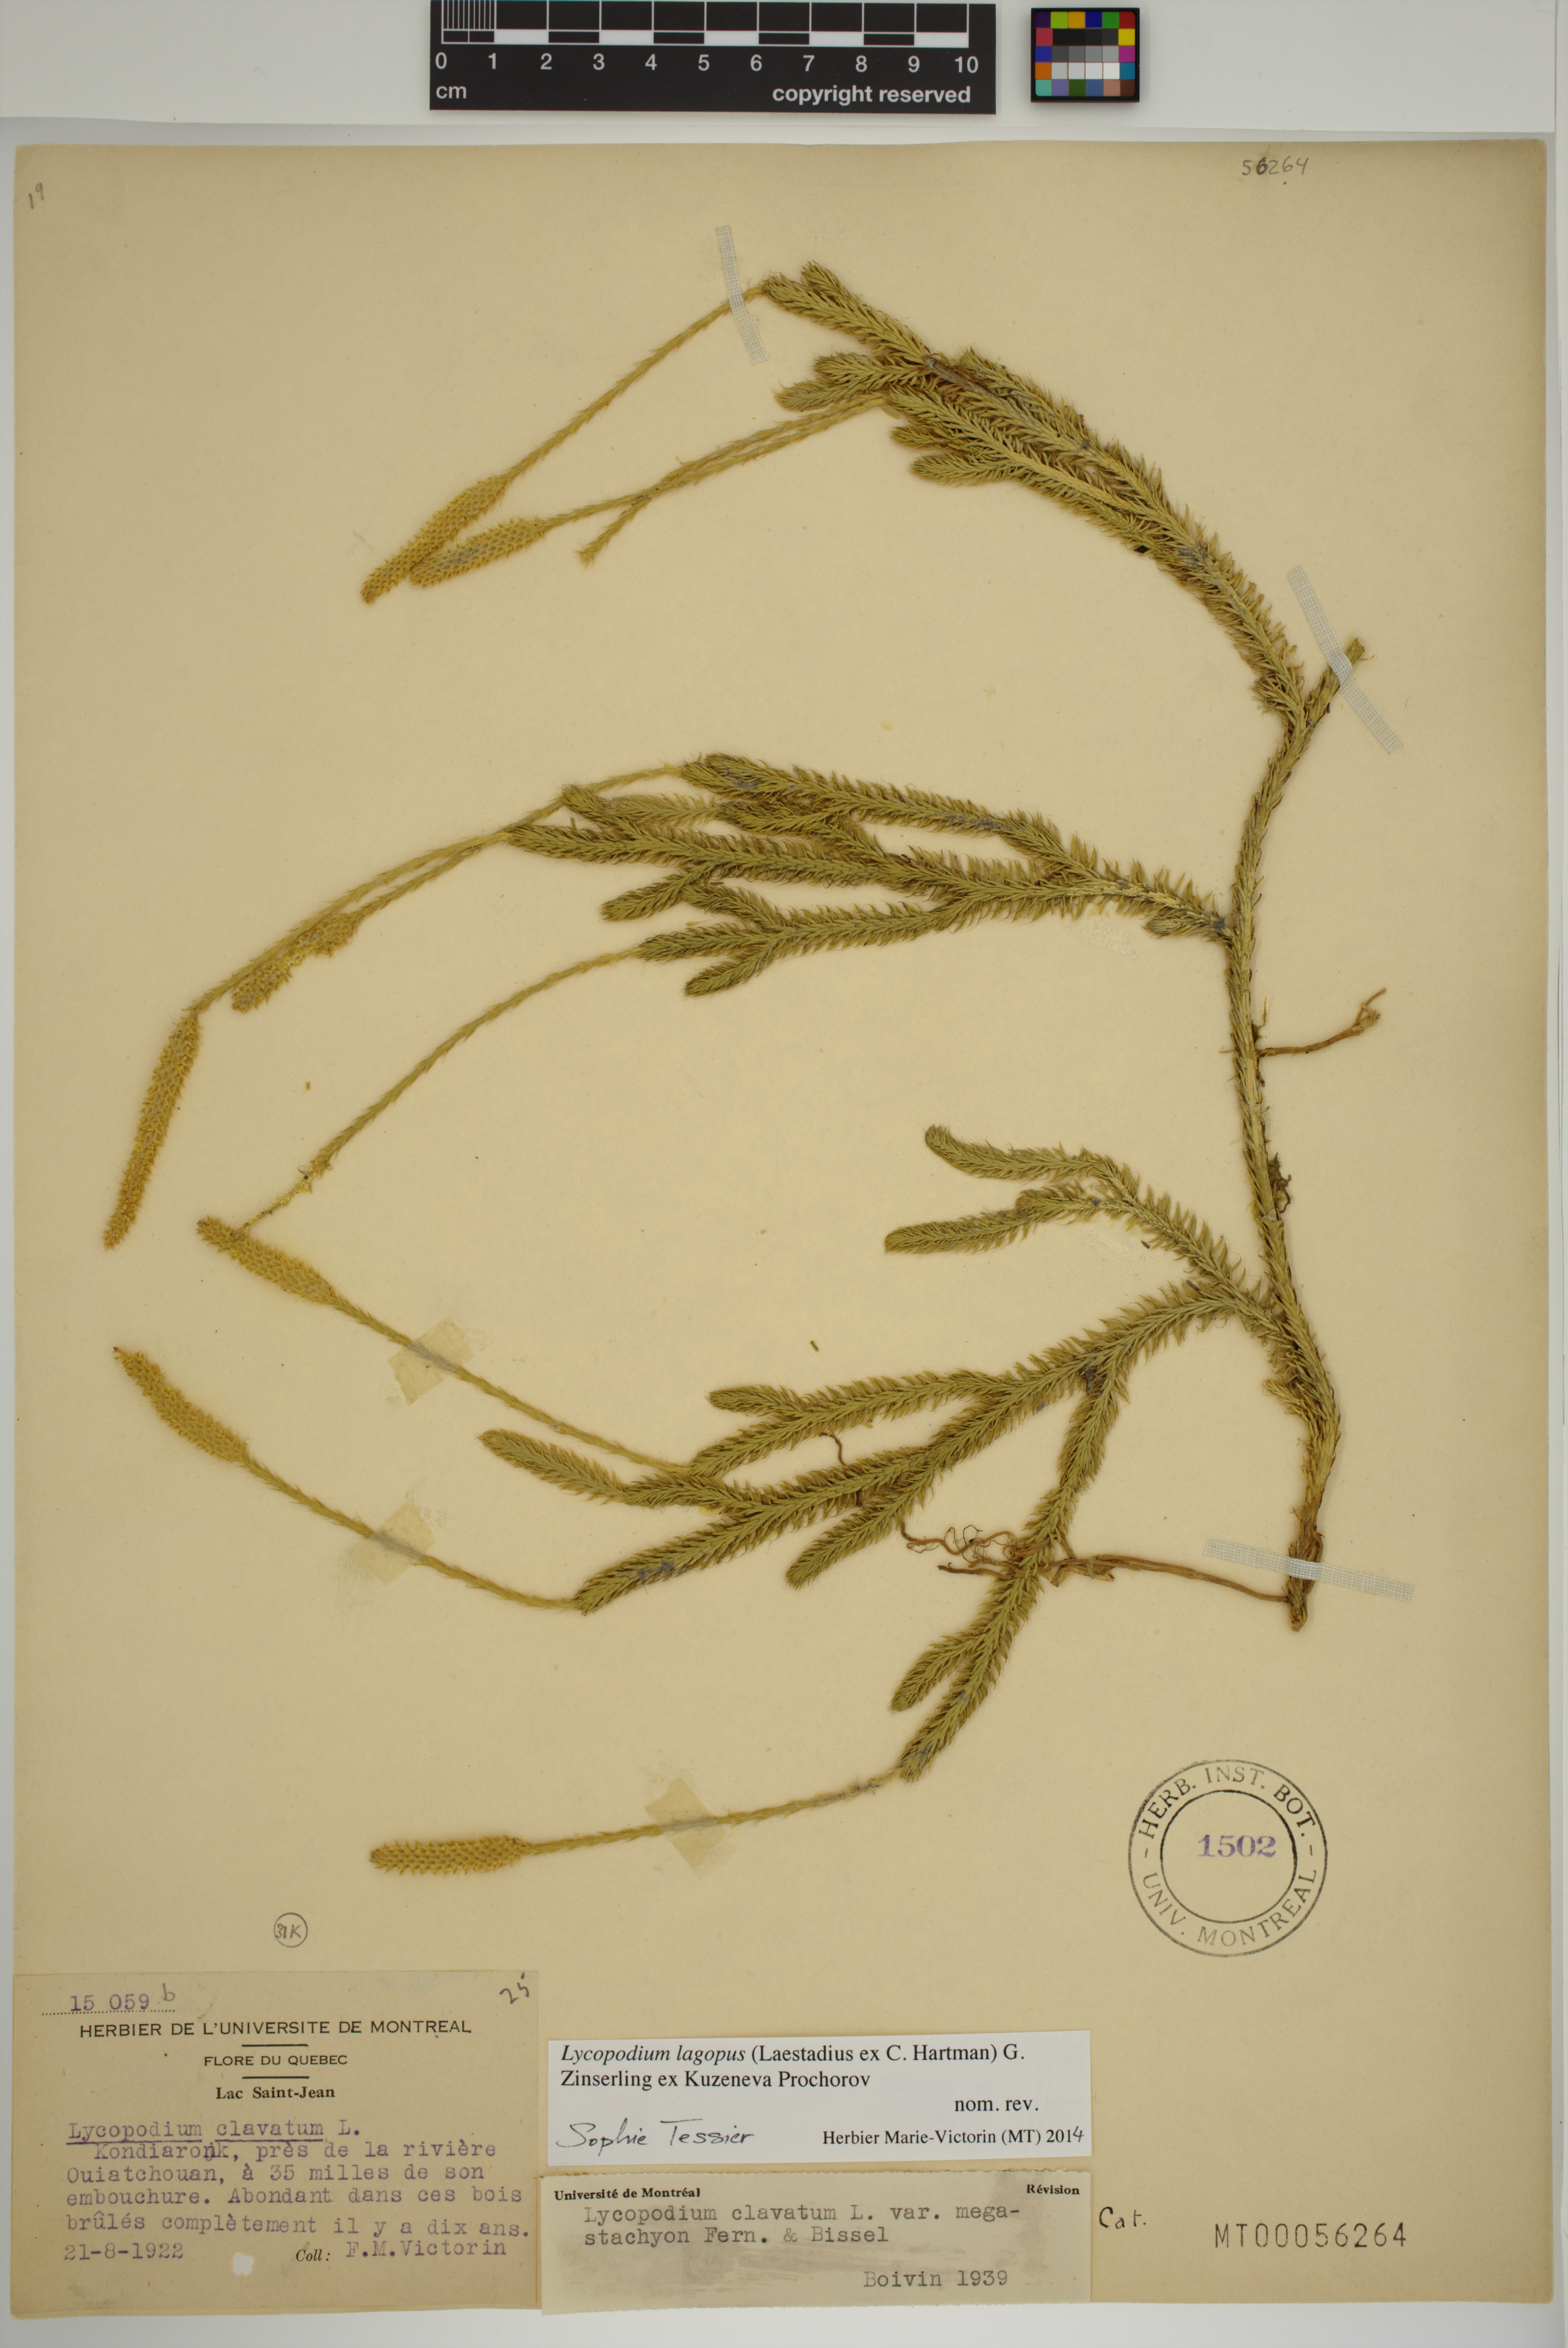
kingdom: Plantae
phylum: Tracheophyta
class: Lycopodiopsida
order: Lycopodiales
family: Lycopodiaceae
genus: Lycopodium
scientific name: Lycopodium lagopus
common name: One-cone clubmoss
